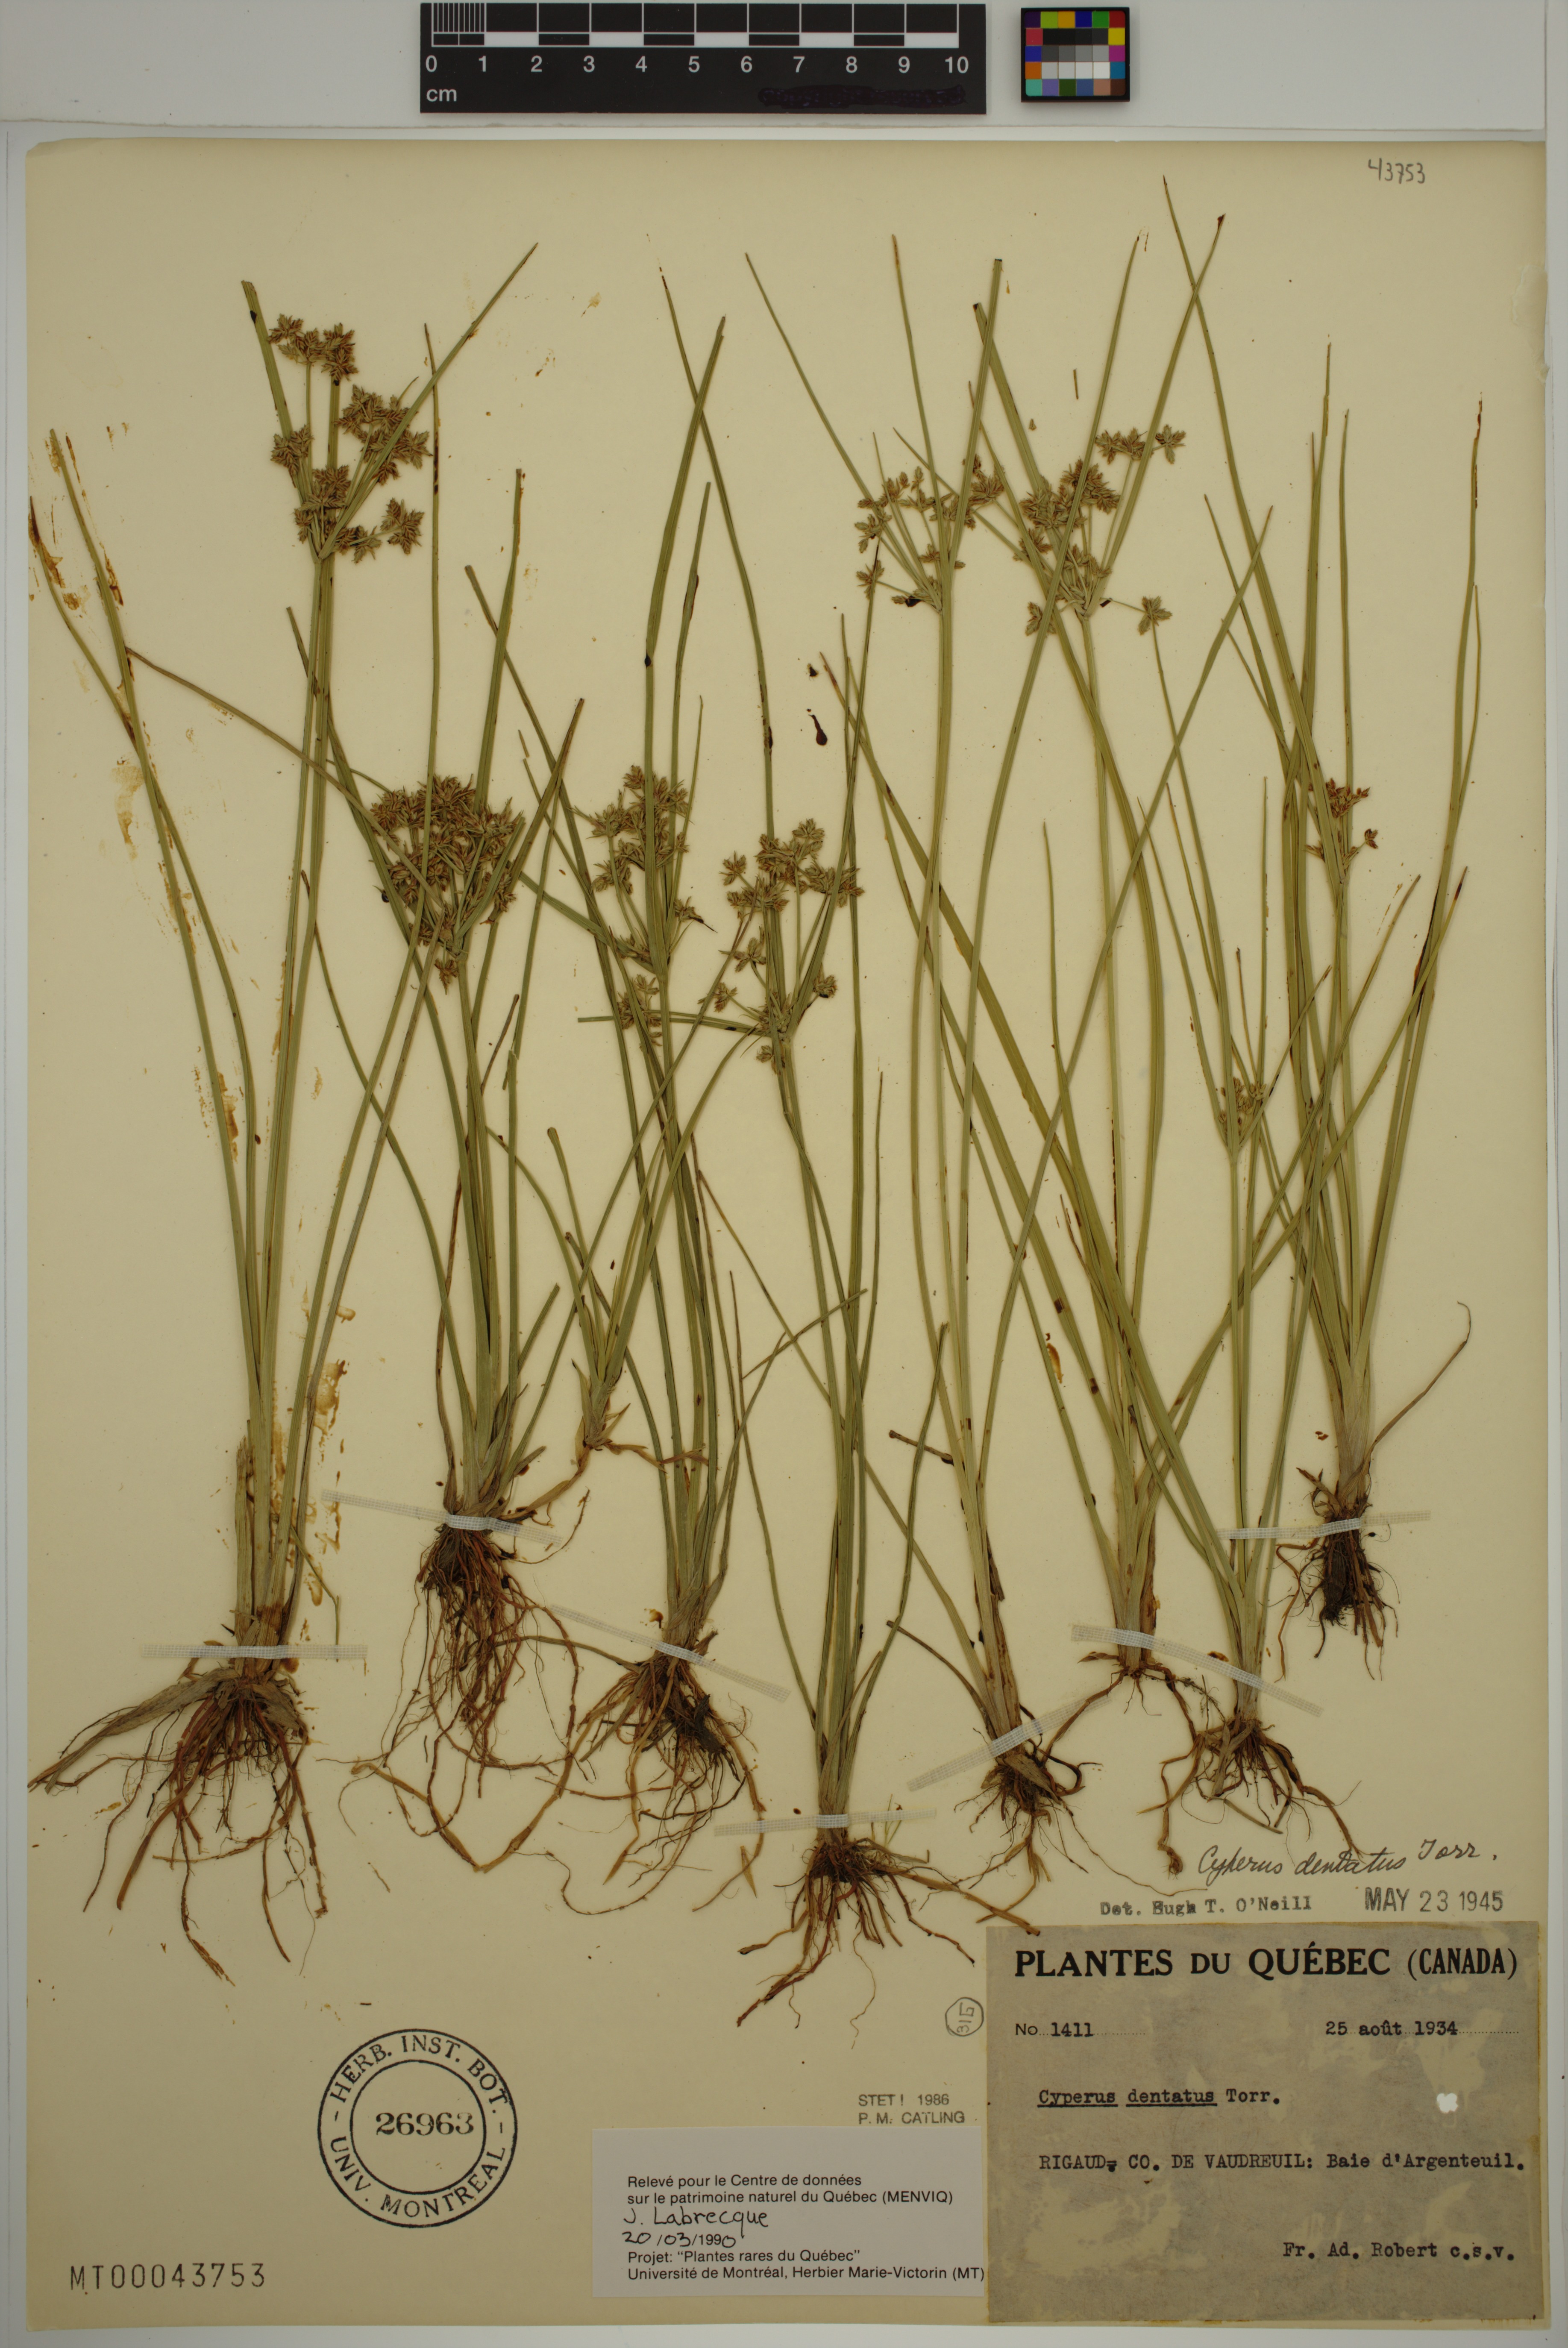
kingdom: Plantae
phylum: Tracheophyta
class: Liliopsida
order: Poales
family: Cyperaceae
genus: Cyperus
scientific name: Cyperus dentatus
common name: Dentate umbrella sedge
